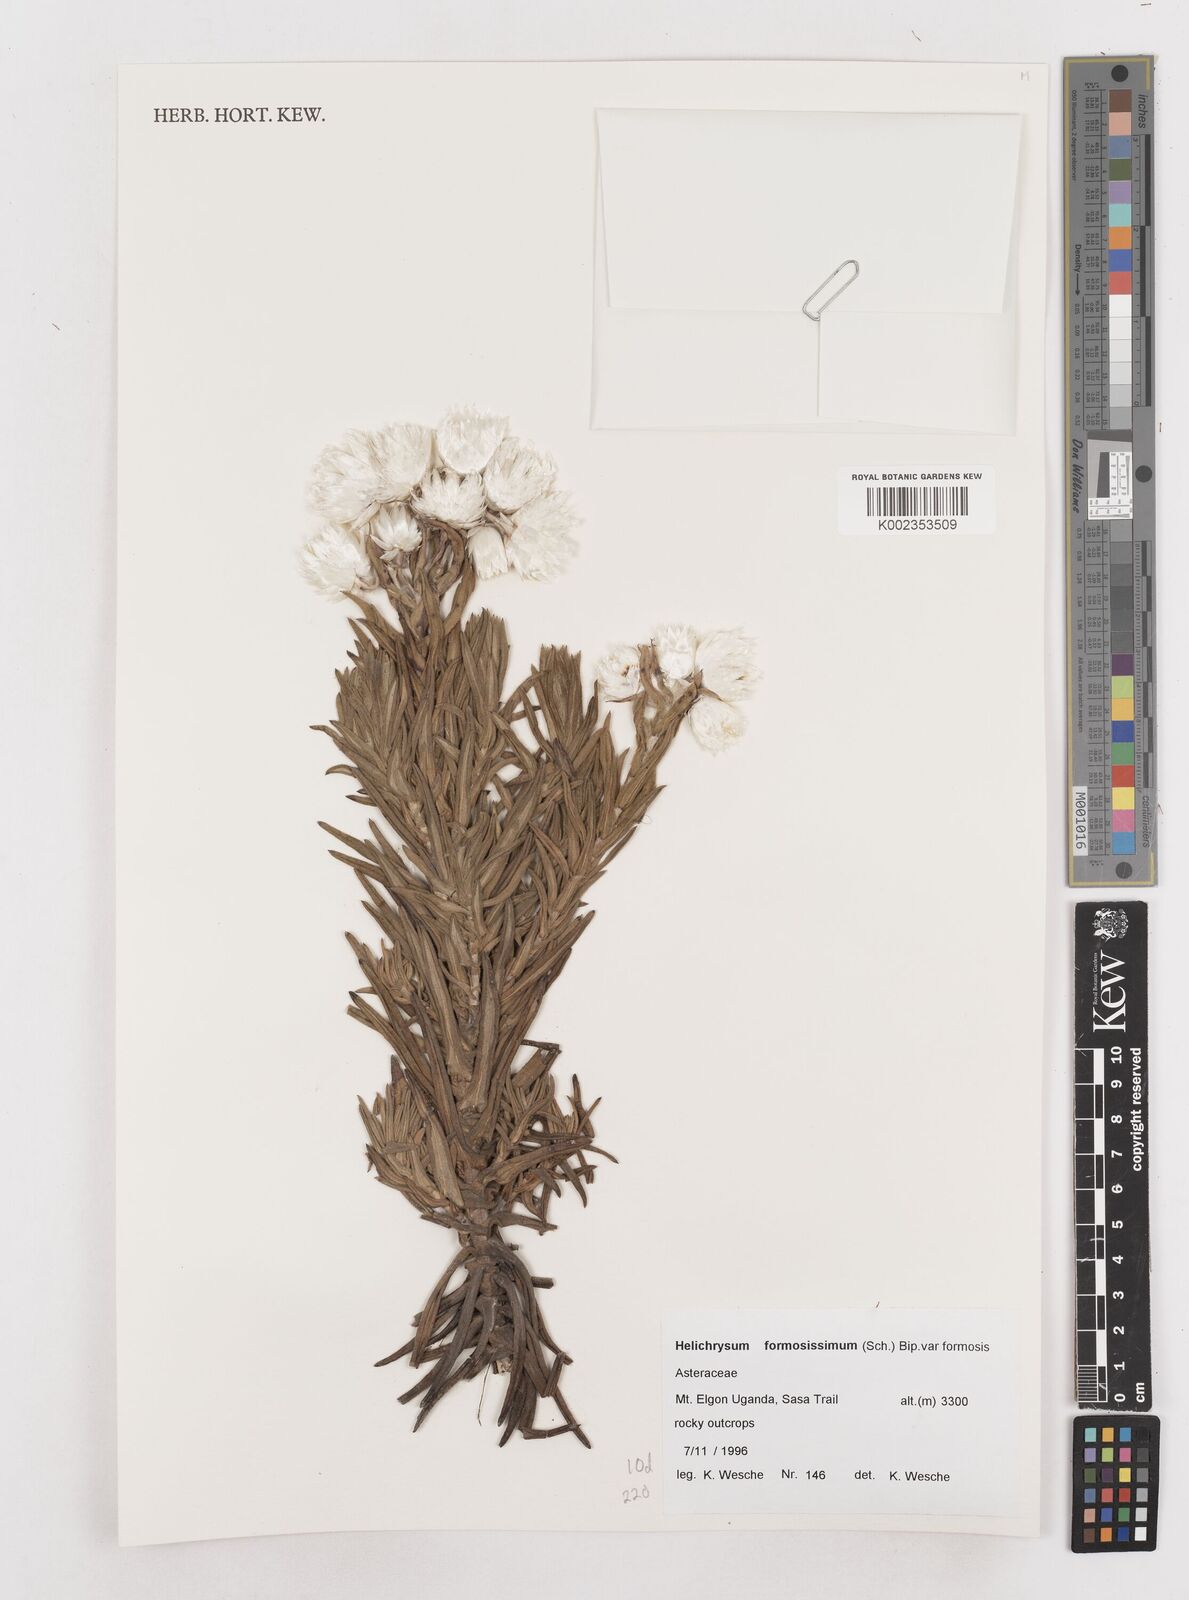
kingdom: Plantae
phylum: Tracheophyta
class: Magnoliopsida
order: Asterales
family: Asteraceae
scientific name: Asteraceae
